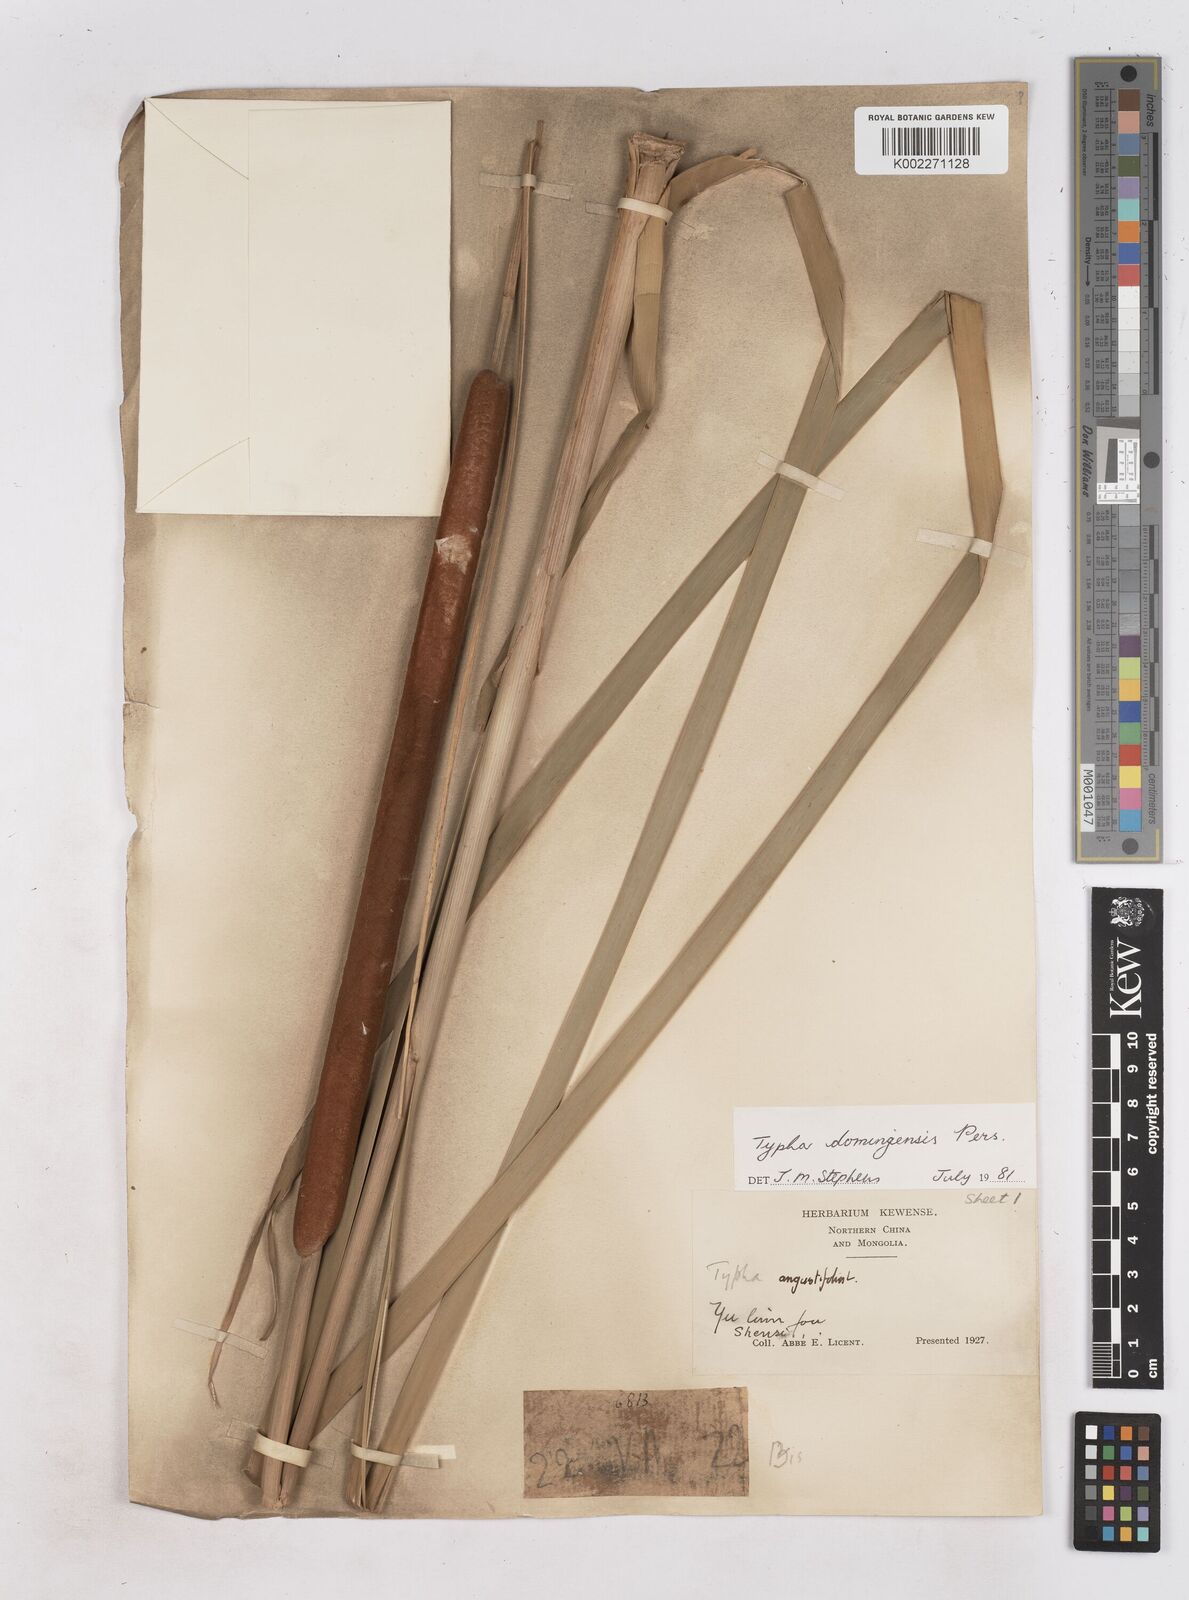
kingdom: Plantae
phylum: Tracheophyta
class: Liliopsida
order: Poales
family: Typhaceae
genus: Typha
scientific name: Typha domingensis
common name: Southern cattail
